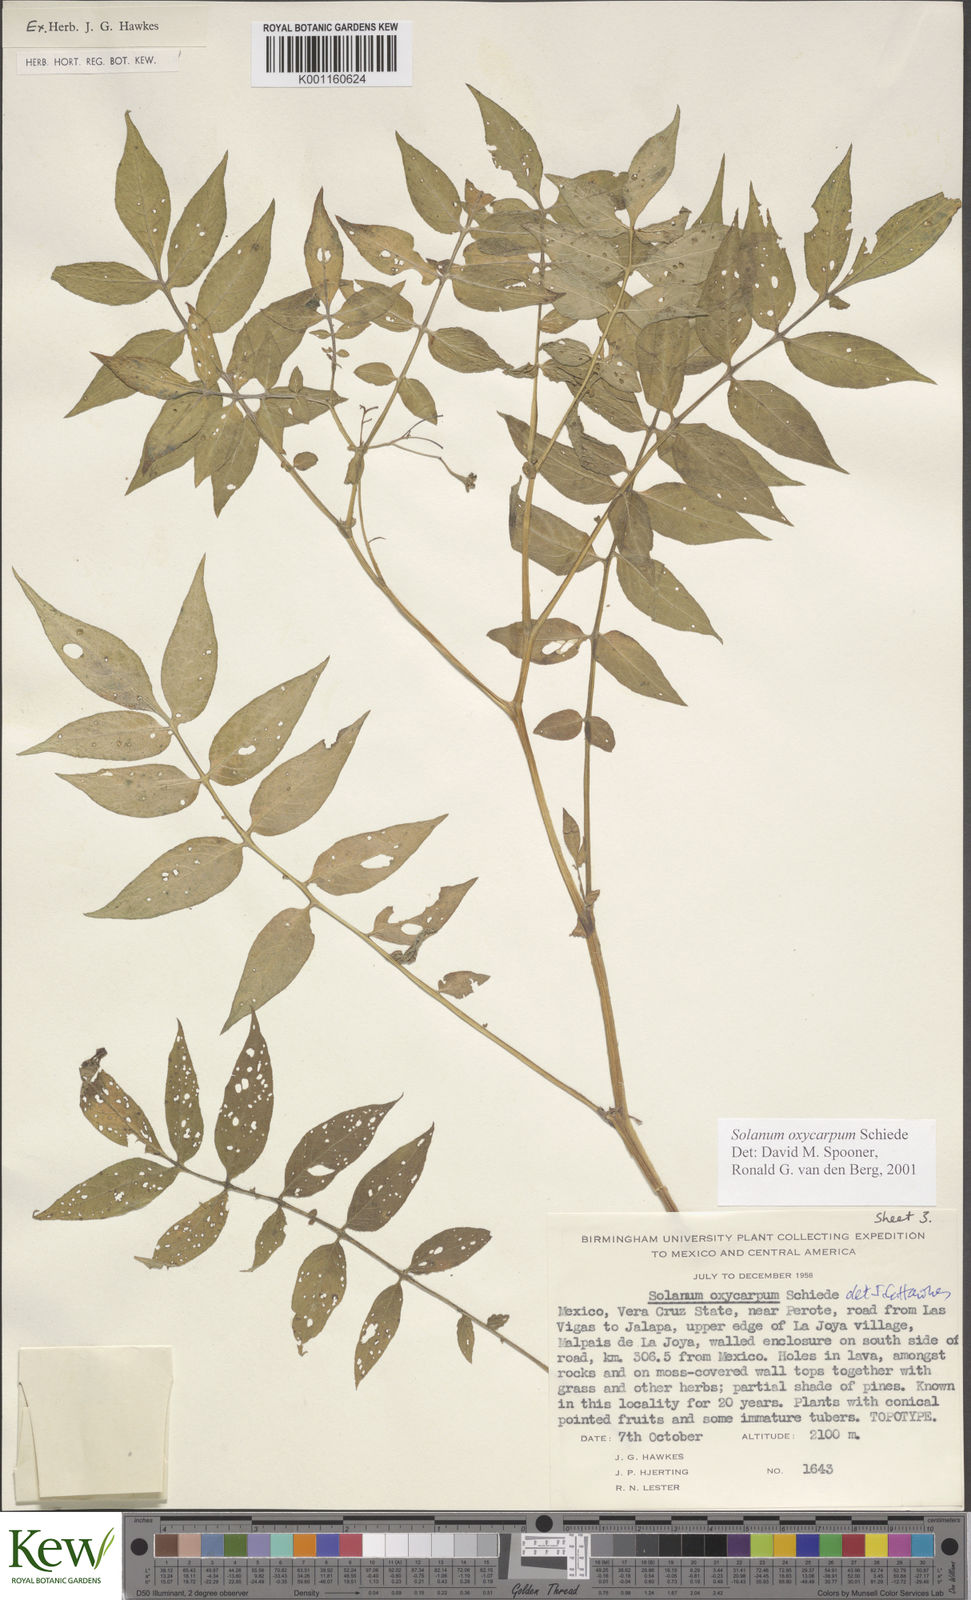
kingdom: Plantae
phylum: Tracheophyta
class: Magnoliopsida
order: Solanales
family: Solanaceae
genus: Solanum
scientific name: Solanum oxycarpum
